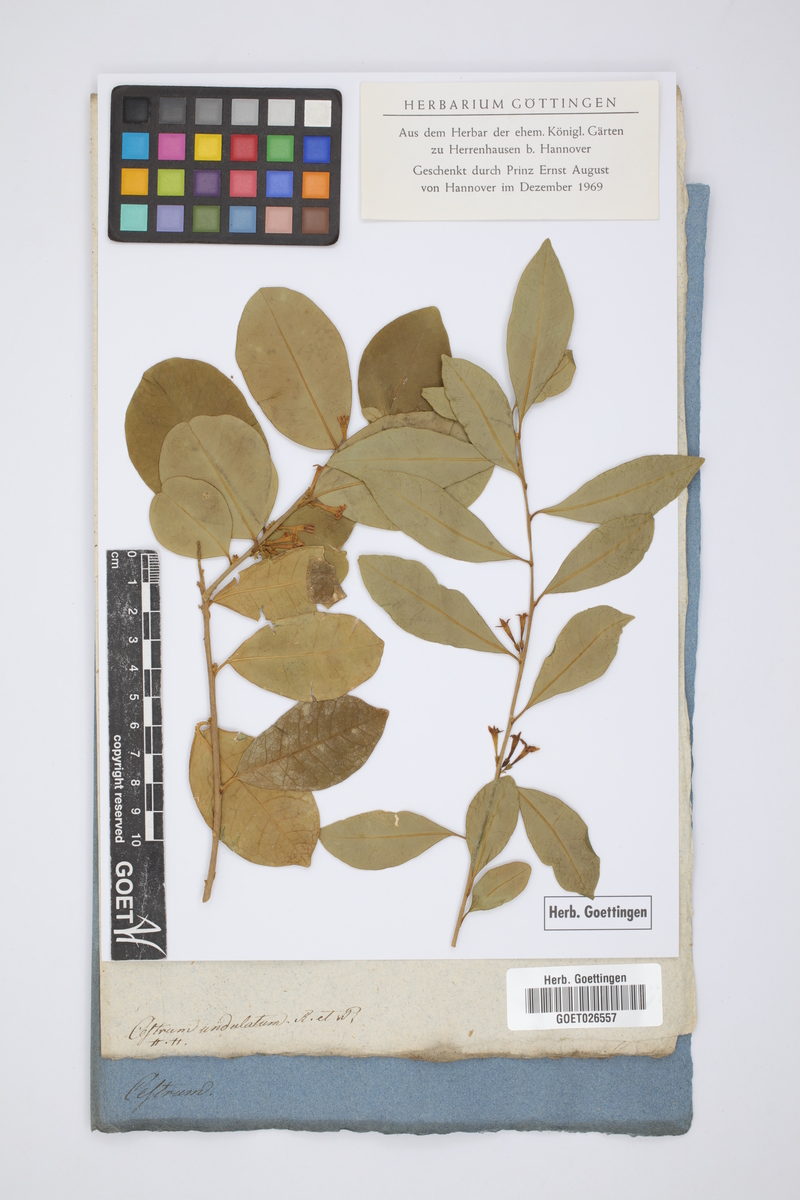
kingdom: Plantae
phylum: Tracheophyta
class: Magnoliopsida
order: Solanales
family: Solanaceae
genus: Cestrum
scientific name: Cestrum undulatum
